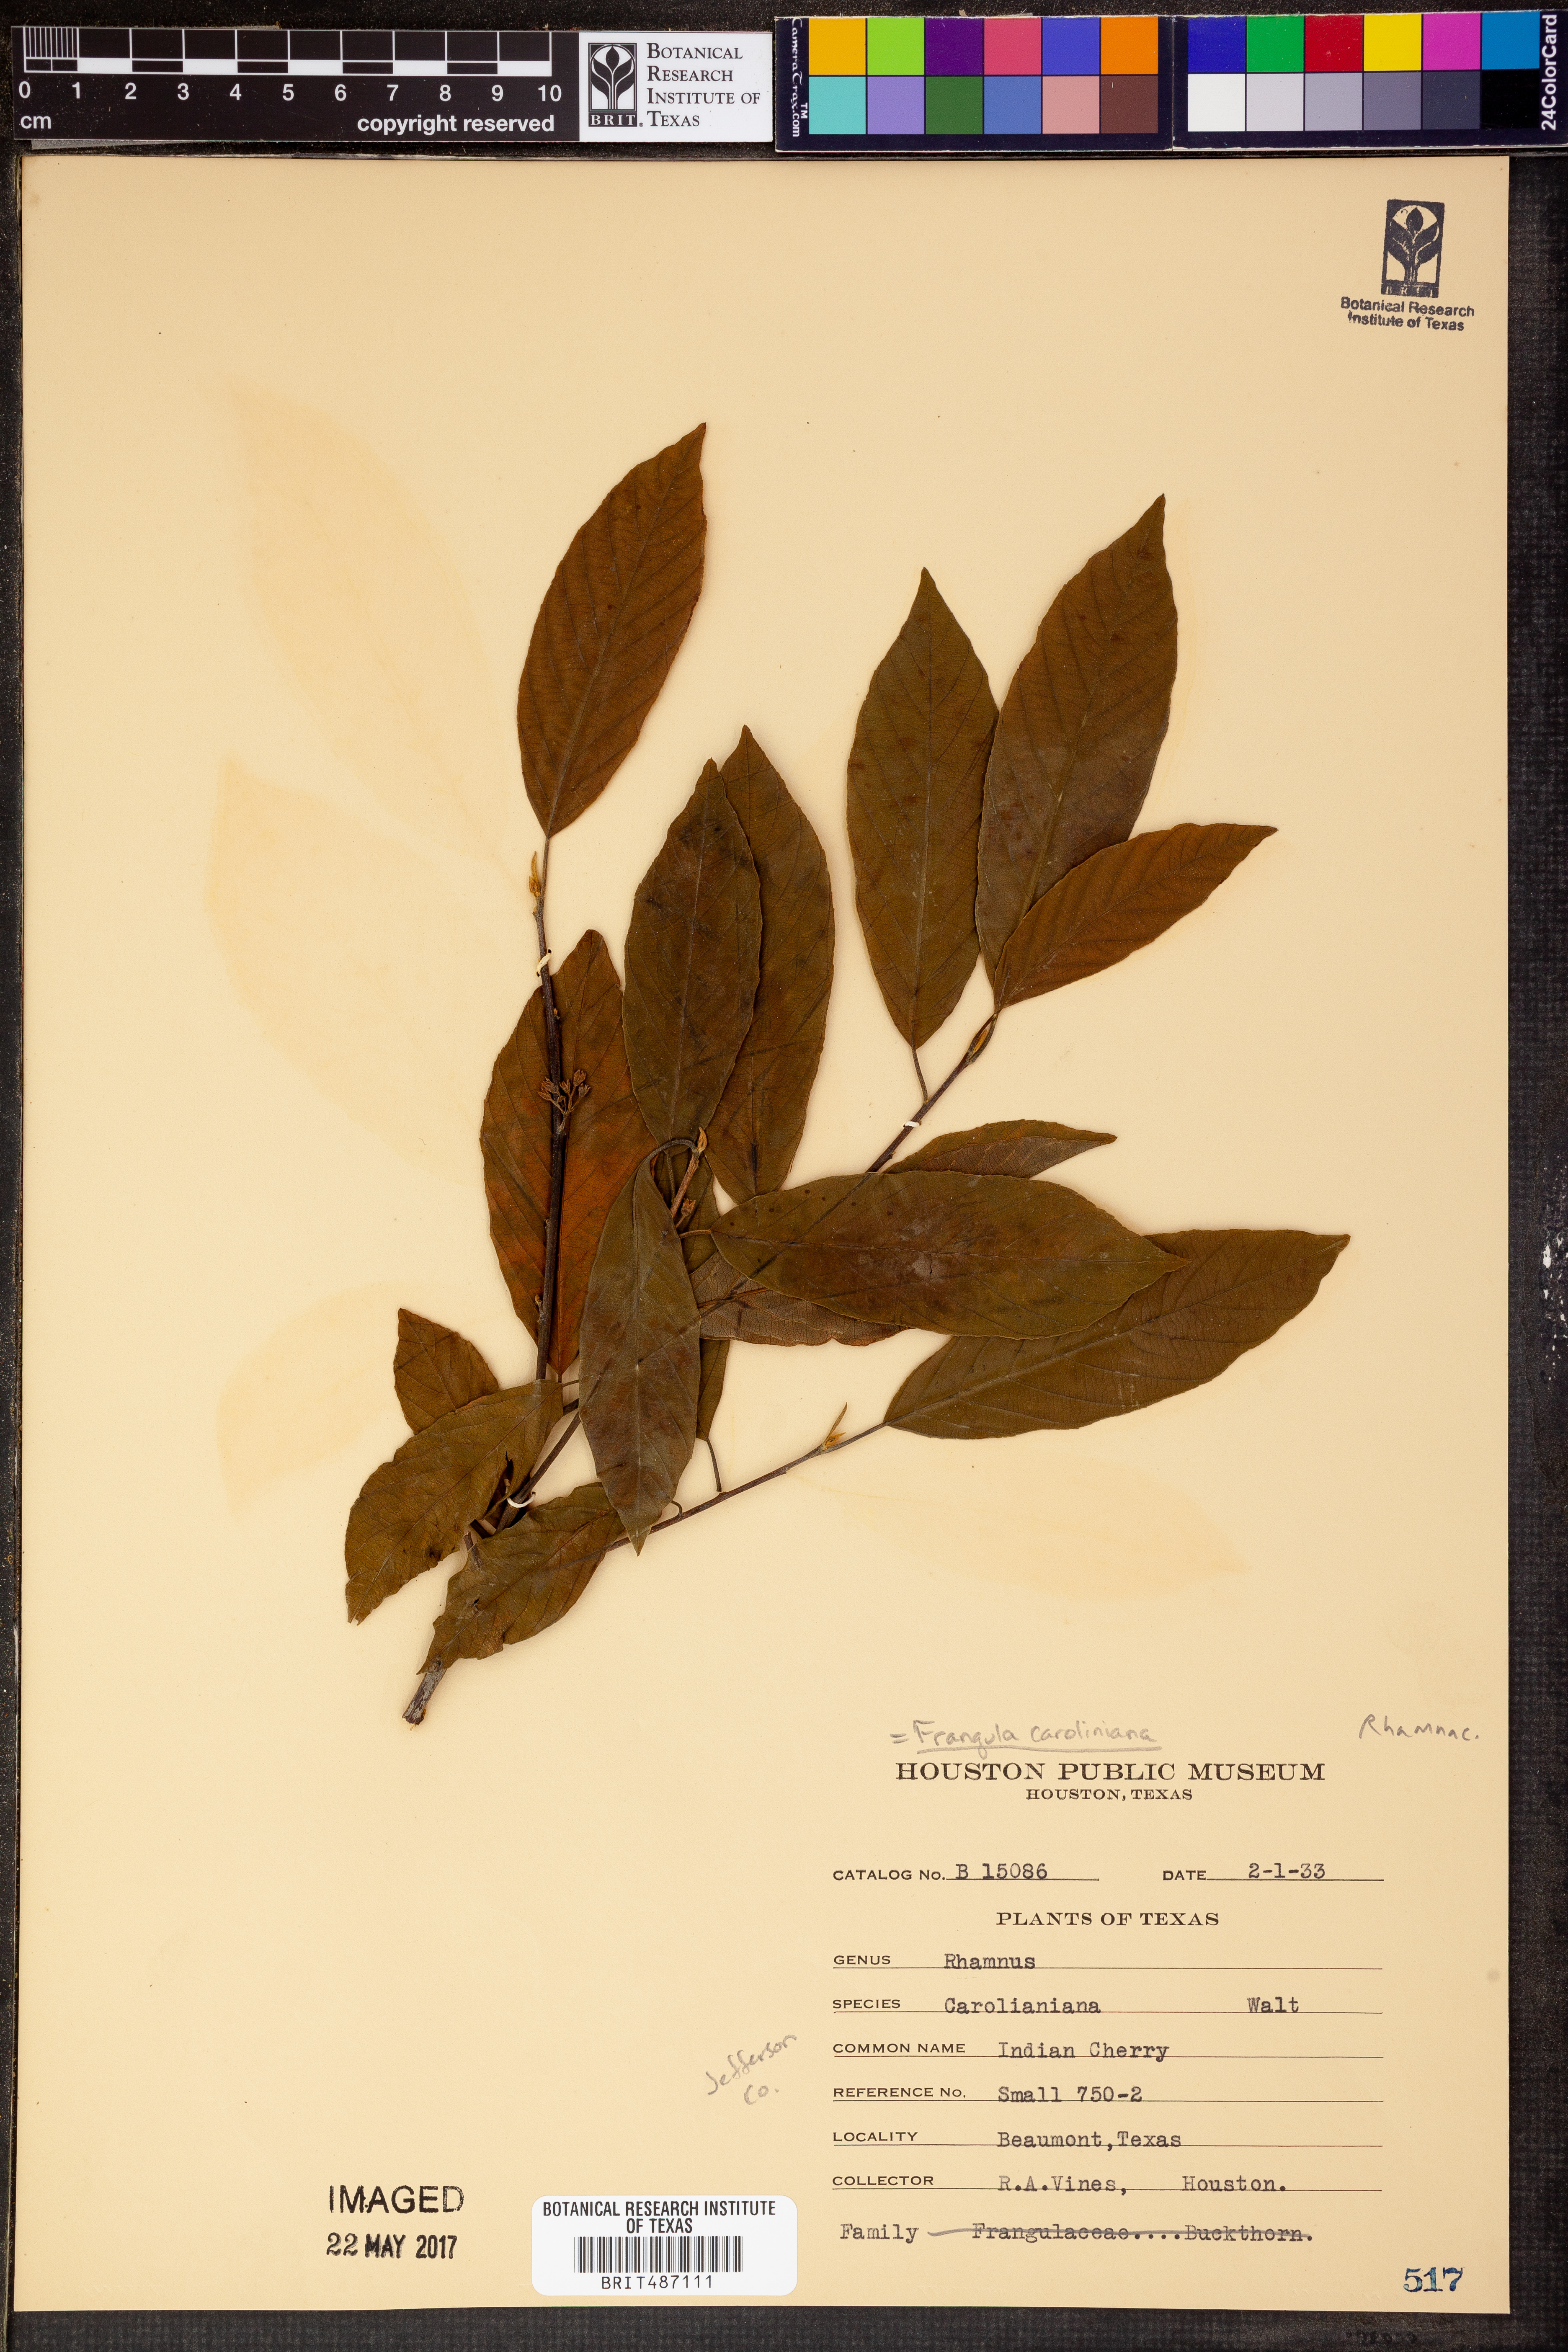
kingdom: Plantae
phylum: Tracheophyta
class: Magnoliopsida
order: Rosales
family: Rhamnaceae
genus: Frangula
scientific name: Frangula caroliniana
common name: Carolina buckthorn
